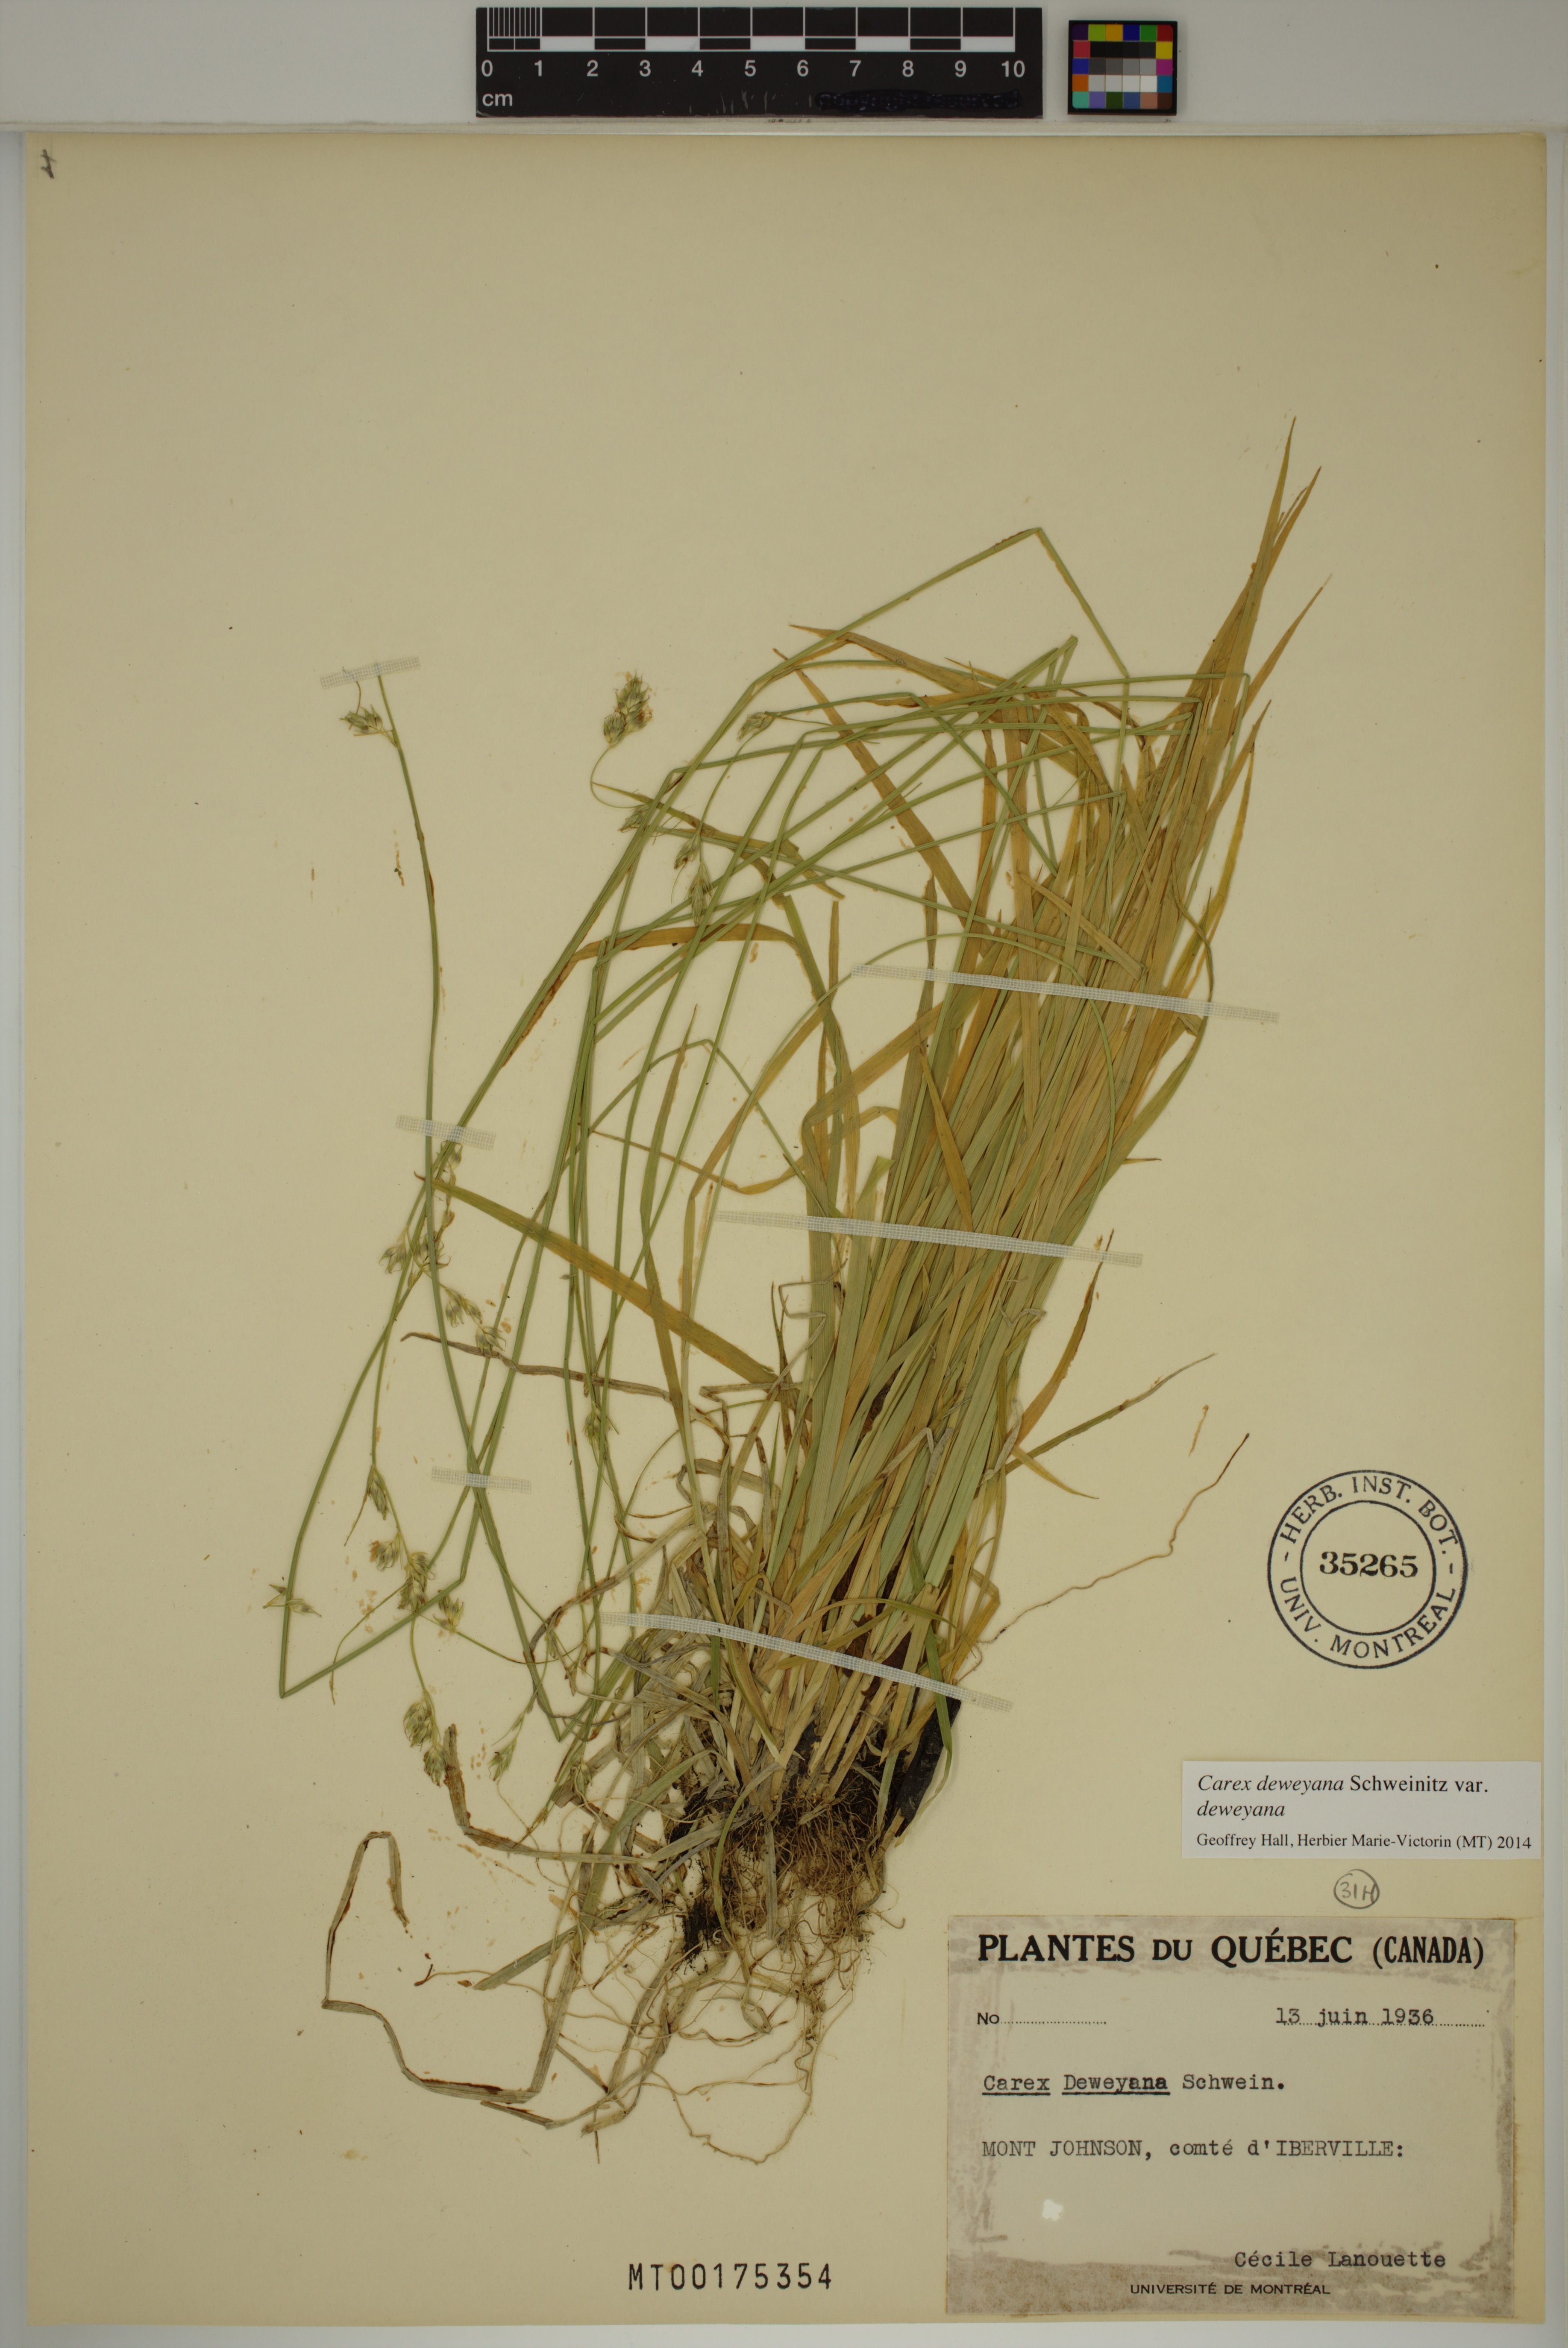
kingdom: Plantae
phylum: Tracheophyta
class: Liliopsida
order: Poales
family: Cyperaceae
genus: Carex
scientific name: Carex deweyana
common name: Dewey's sedge
